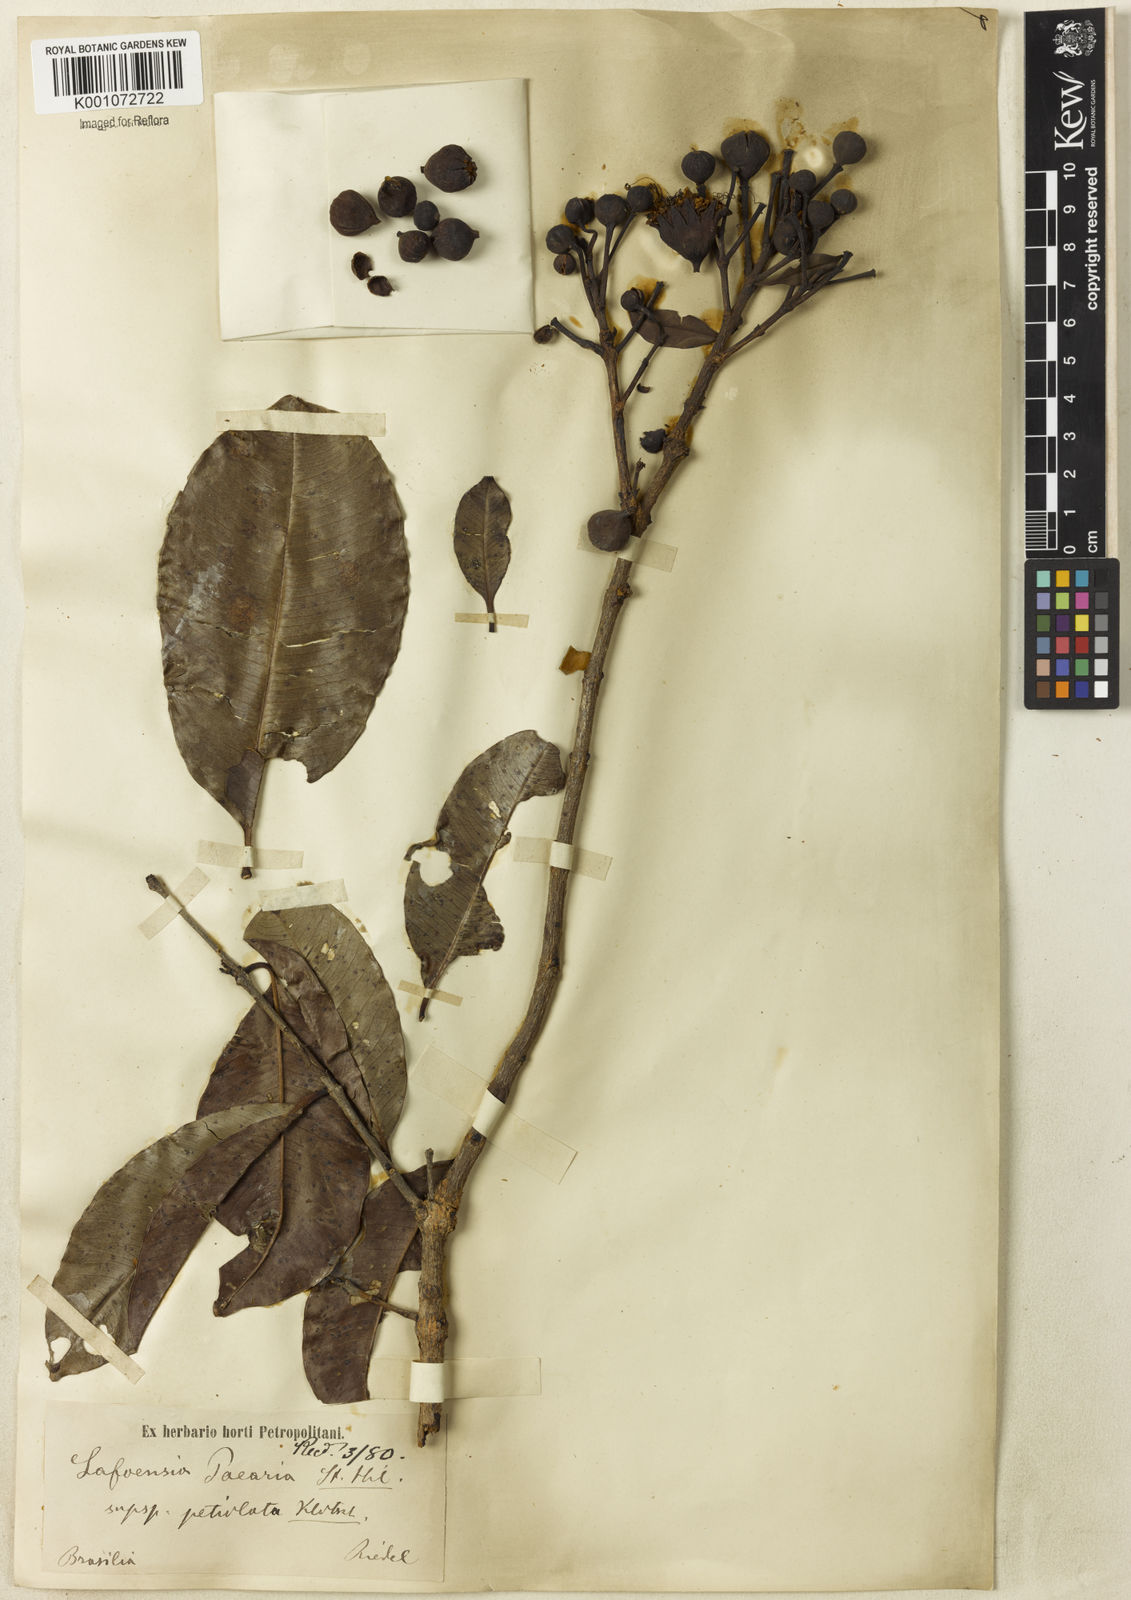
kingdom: Plantae
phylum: Tracheophyta
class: Magnoliopsida
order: Myrtales
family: Lythraceae
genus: Lafoensia
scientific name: Lafoensia pacari
